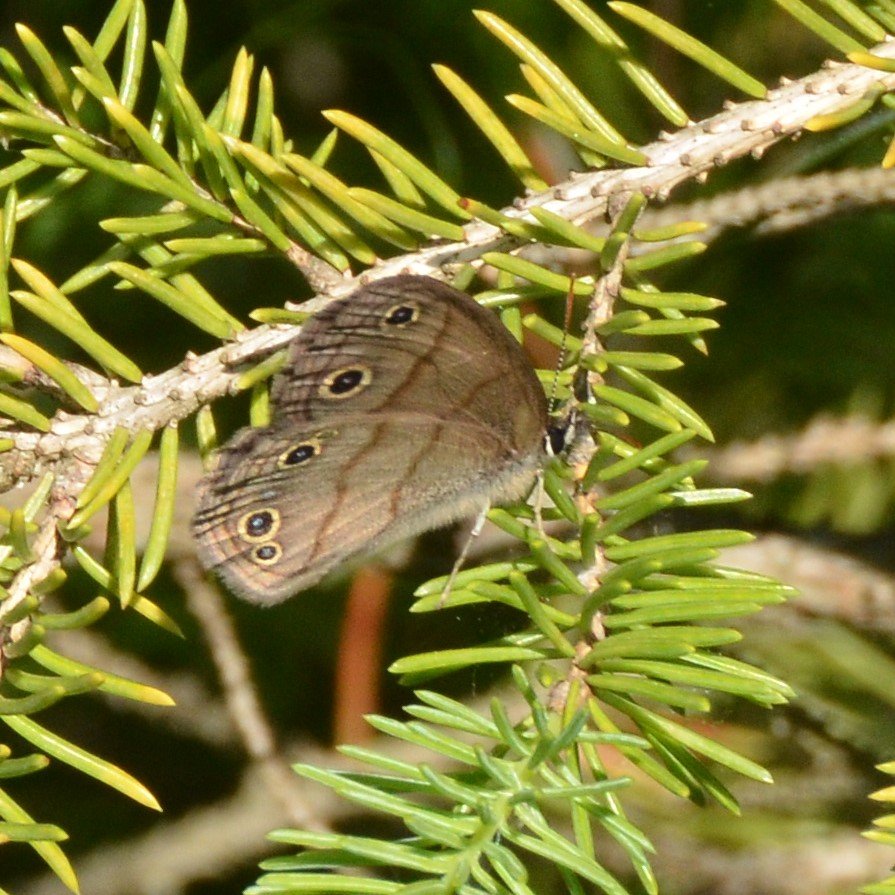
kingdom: Animalia
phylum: Arthropoda
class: Insecta
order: Lepidoptera
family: Nymphalidae
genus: Euptychia
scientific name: Euptychia cymela
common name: Little Wood Satyr
